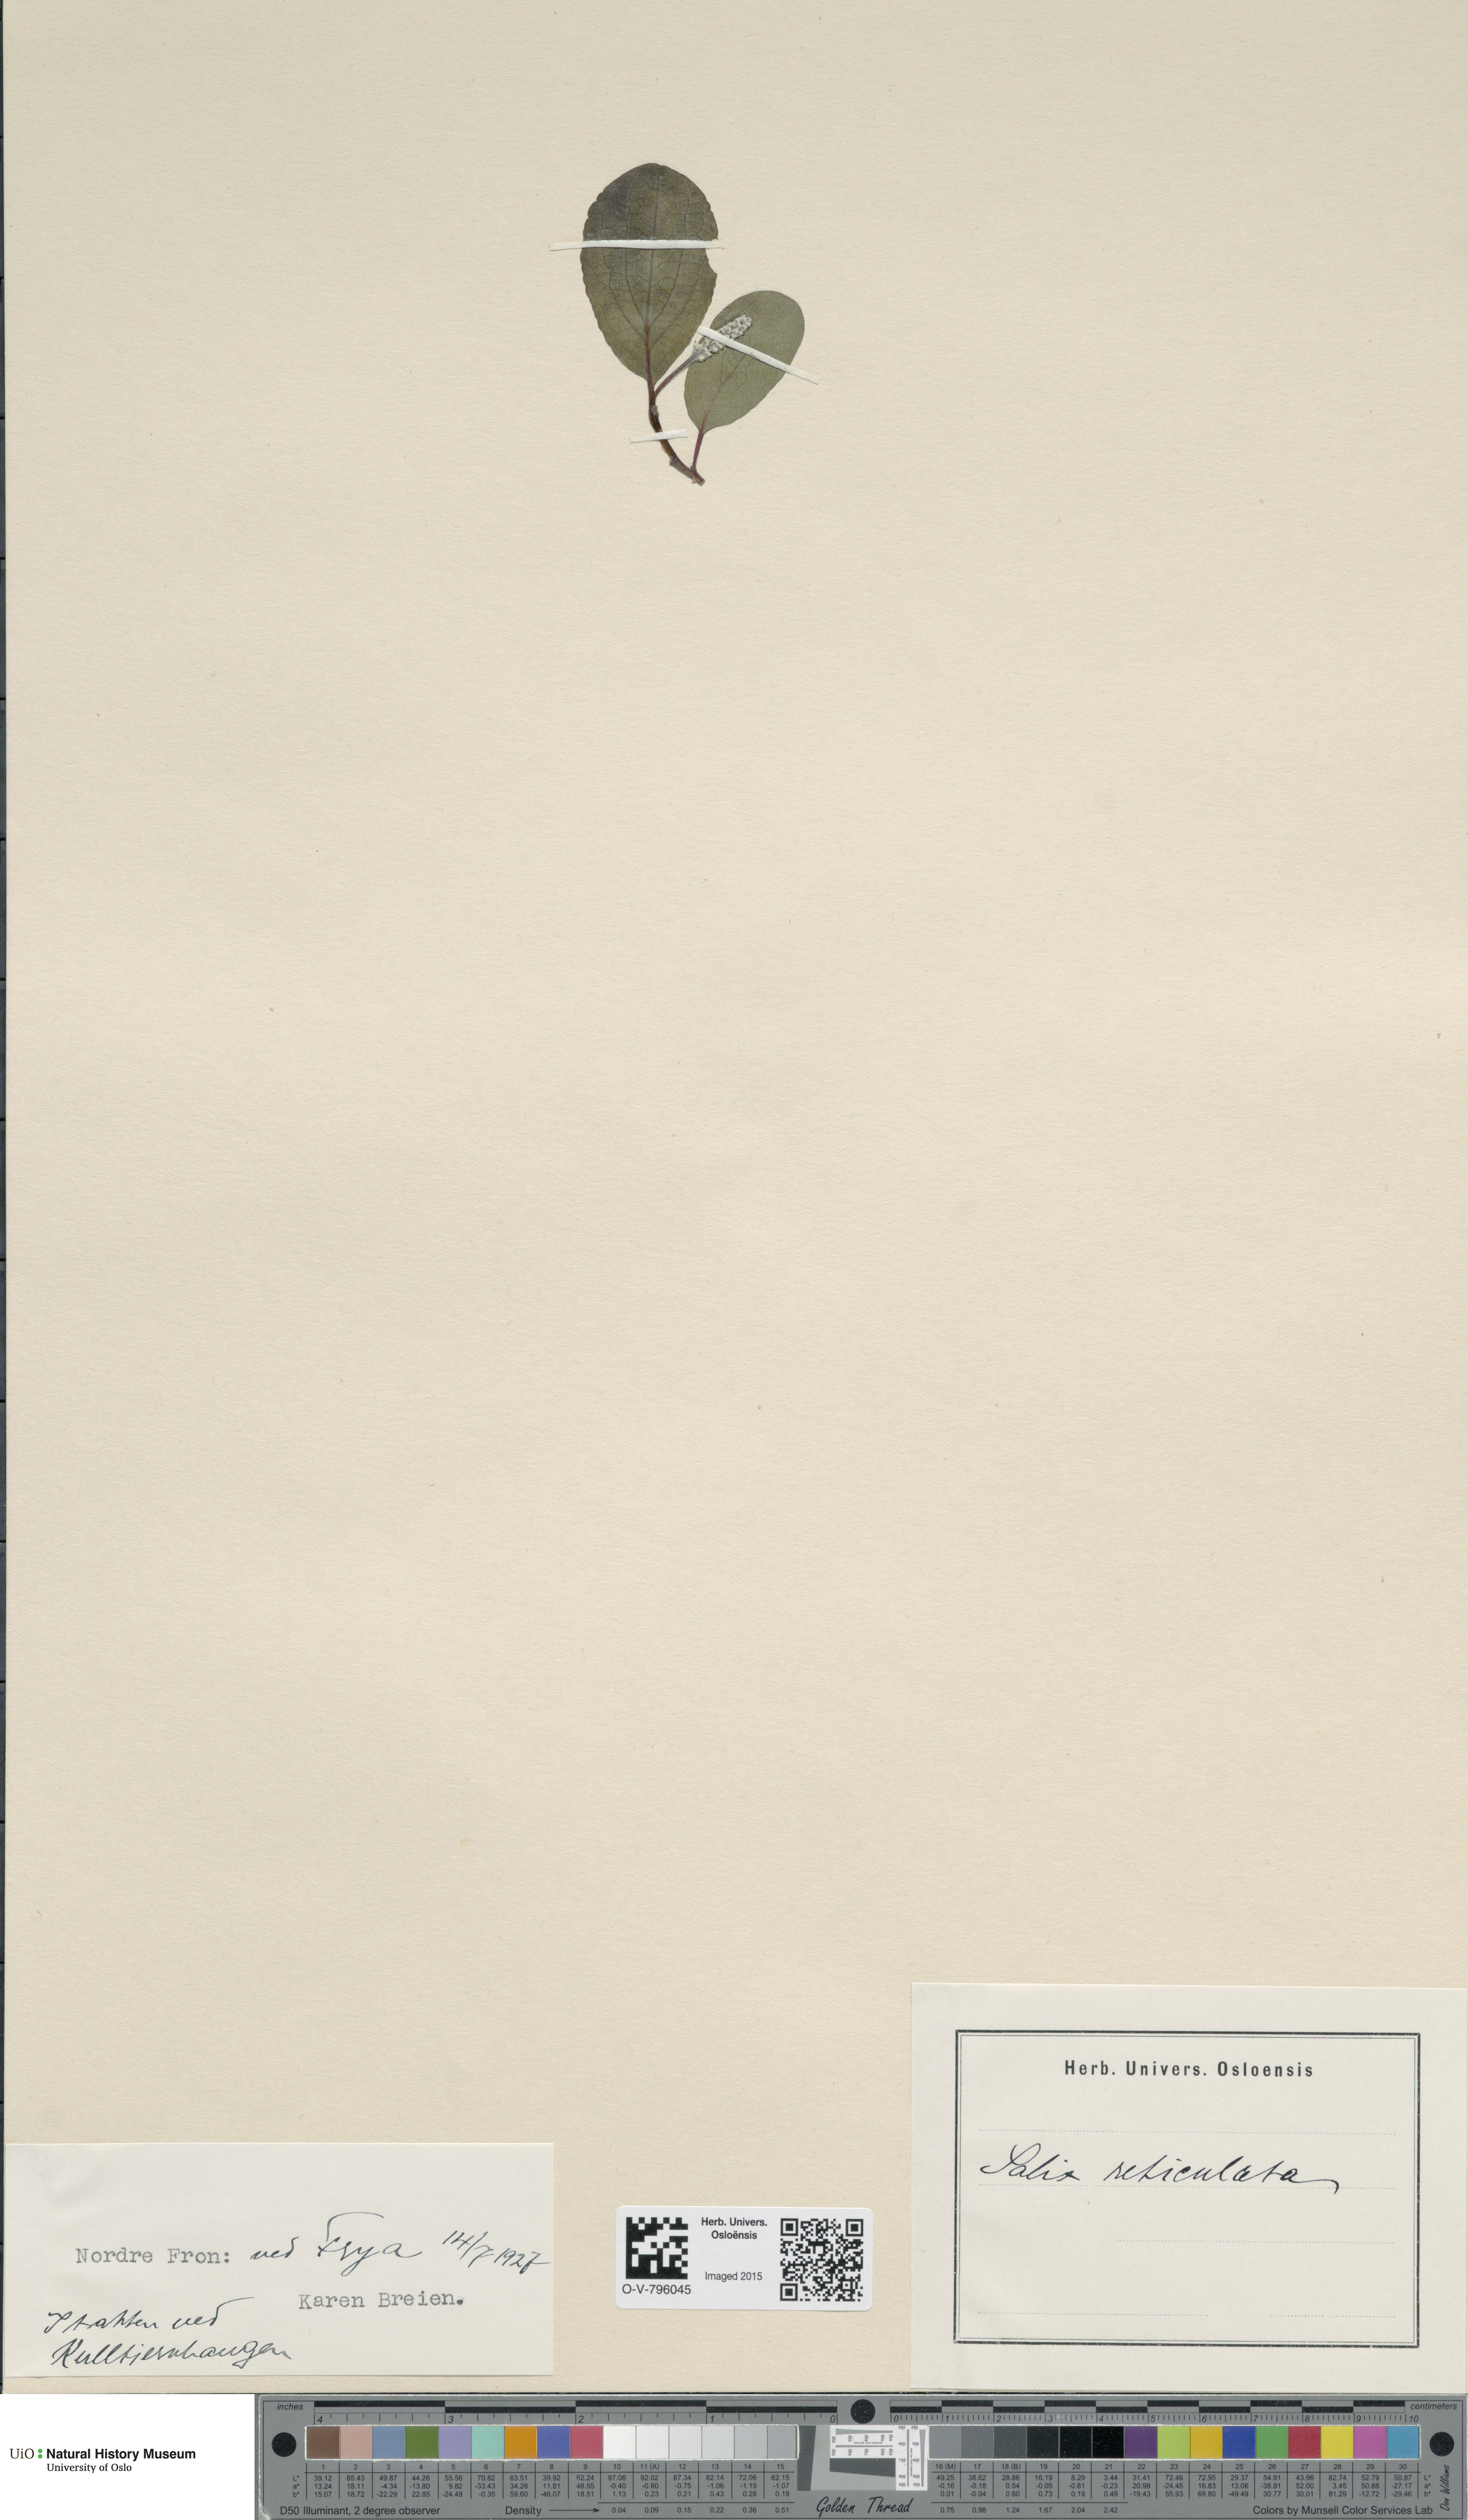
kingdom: Plantae
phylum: Tracheophyta
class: Magnoliopsida
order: Malpighiales
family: Salicaceae
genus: Salix
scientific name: Salix reticulata
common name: Net-leaved willow
